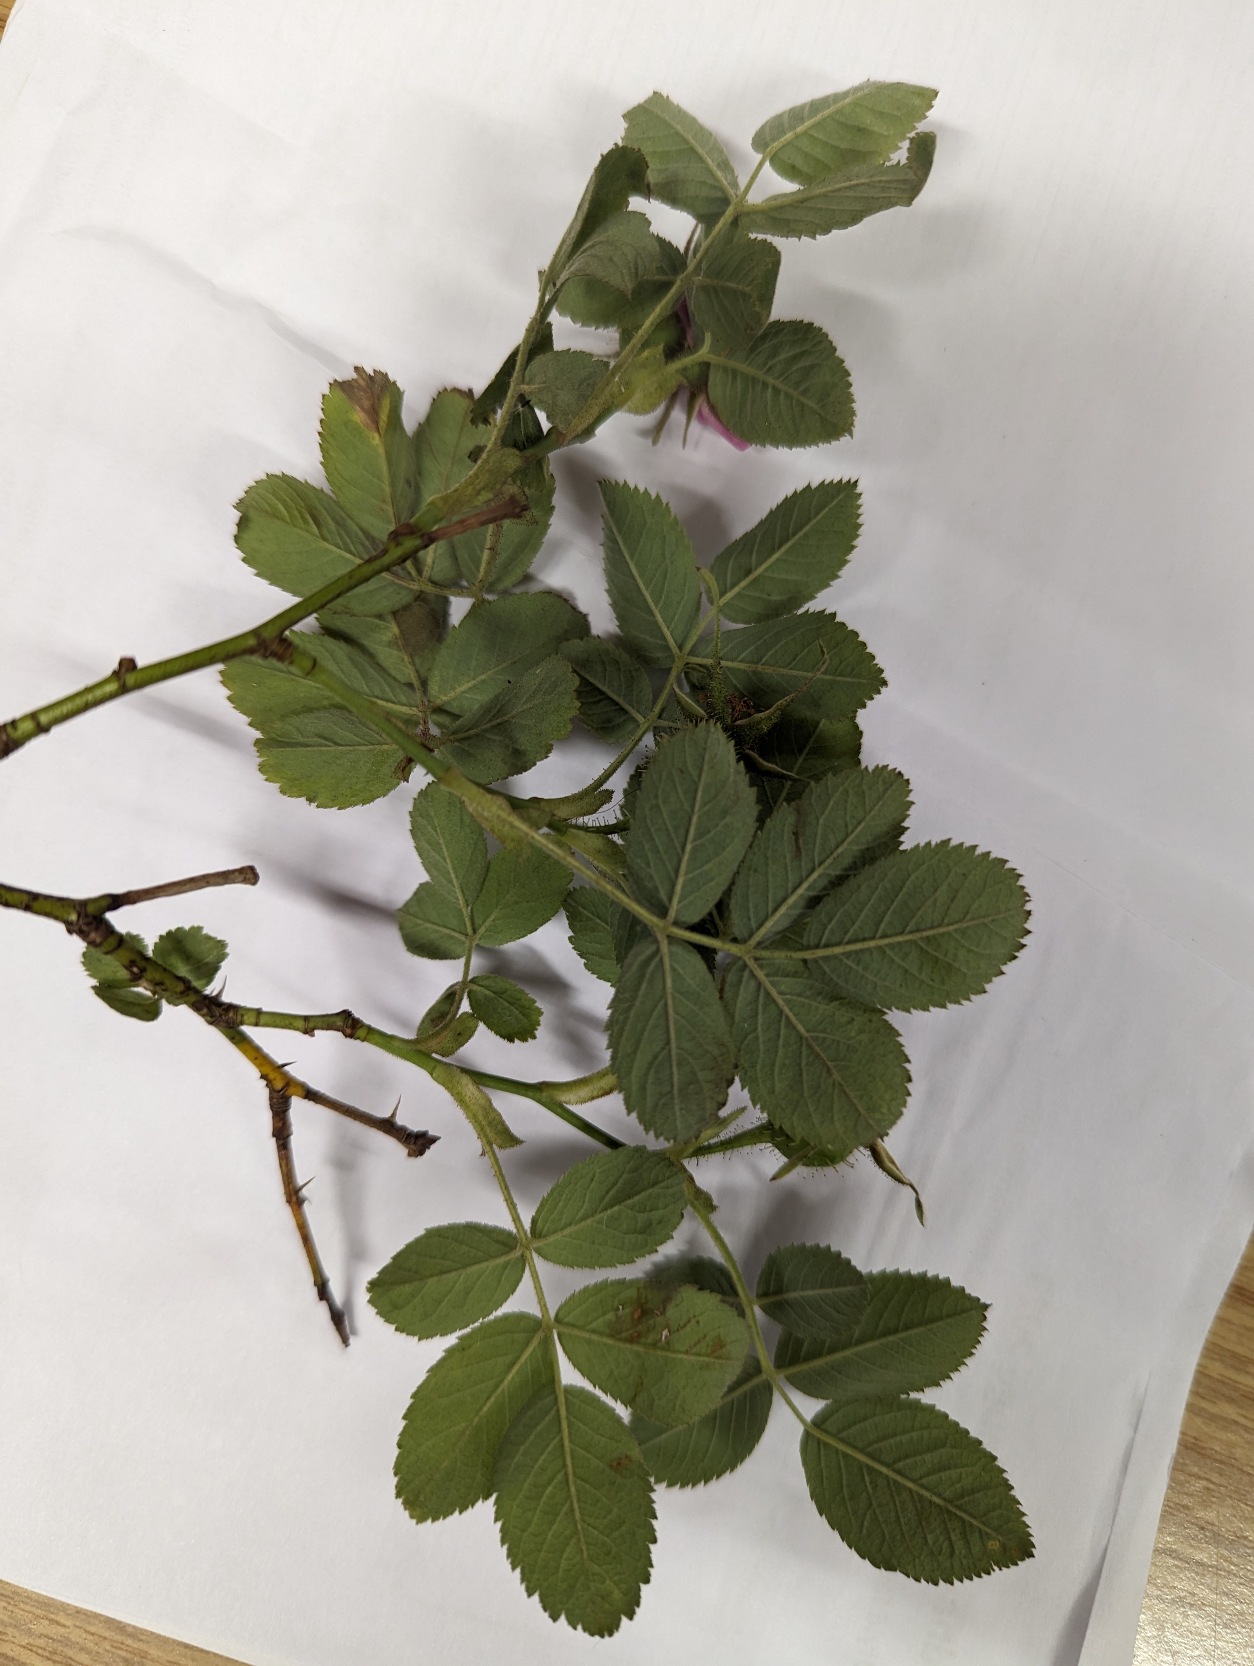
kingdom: Plantae
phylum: Tracheophyta
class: Magnoliopsida
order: Rosales
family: Rosaceae
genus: Rosa
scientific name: Rosa villosa
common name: Spansk hyben-rose
